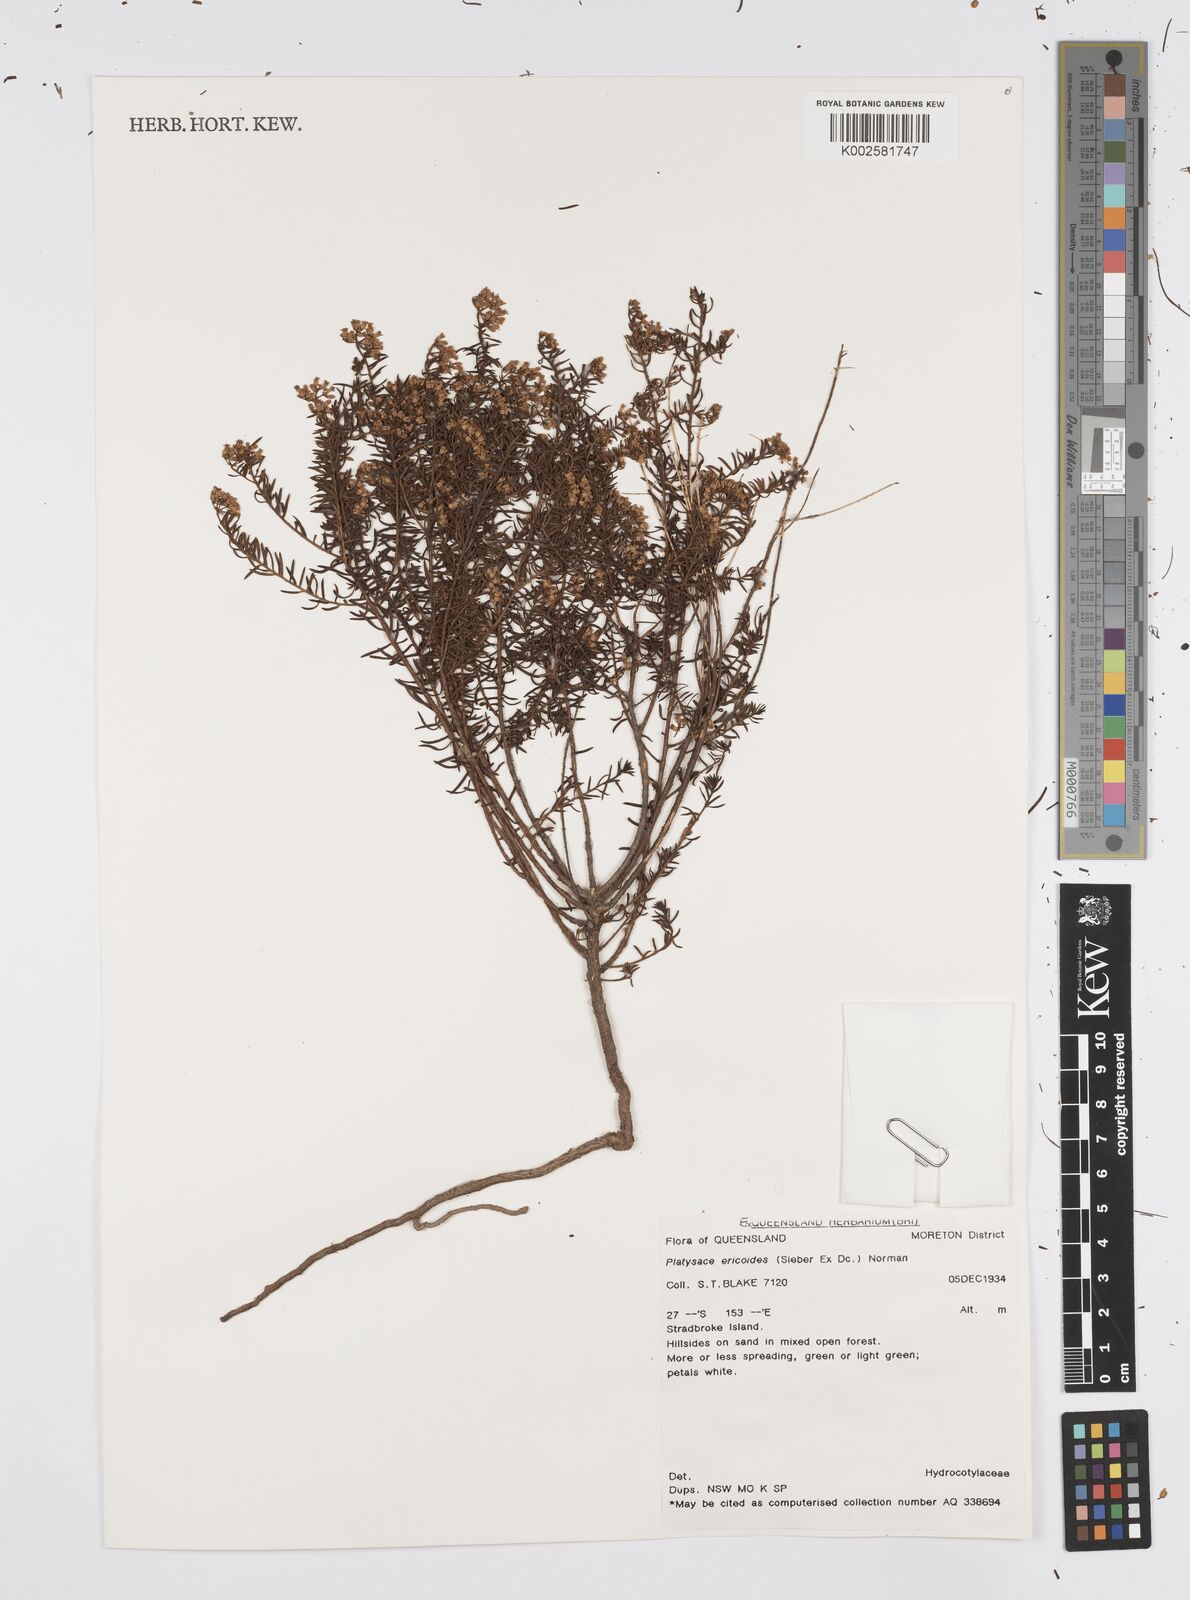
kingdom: Plantae
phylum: Tracheophyta
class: Magnoliopsida
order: Apiales
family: Apiaceae
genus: Platysace
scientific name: Platysace ericoides
